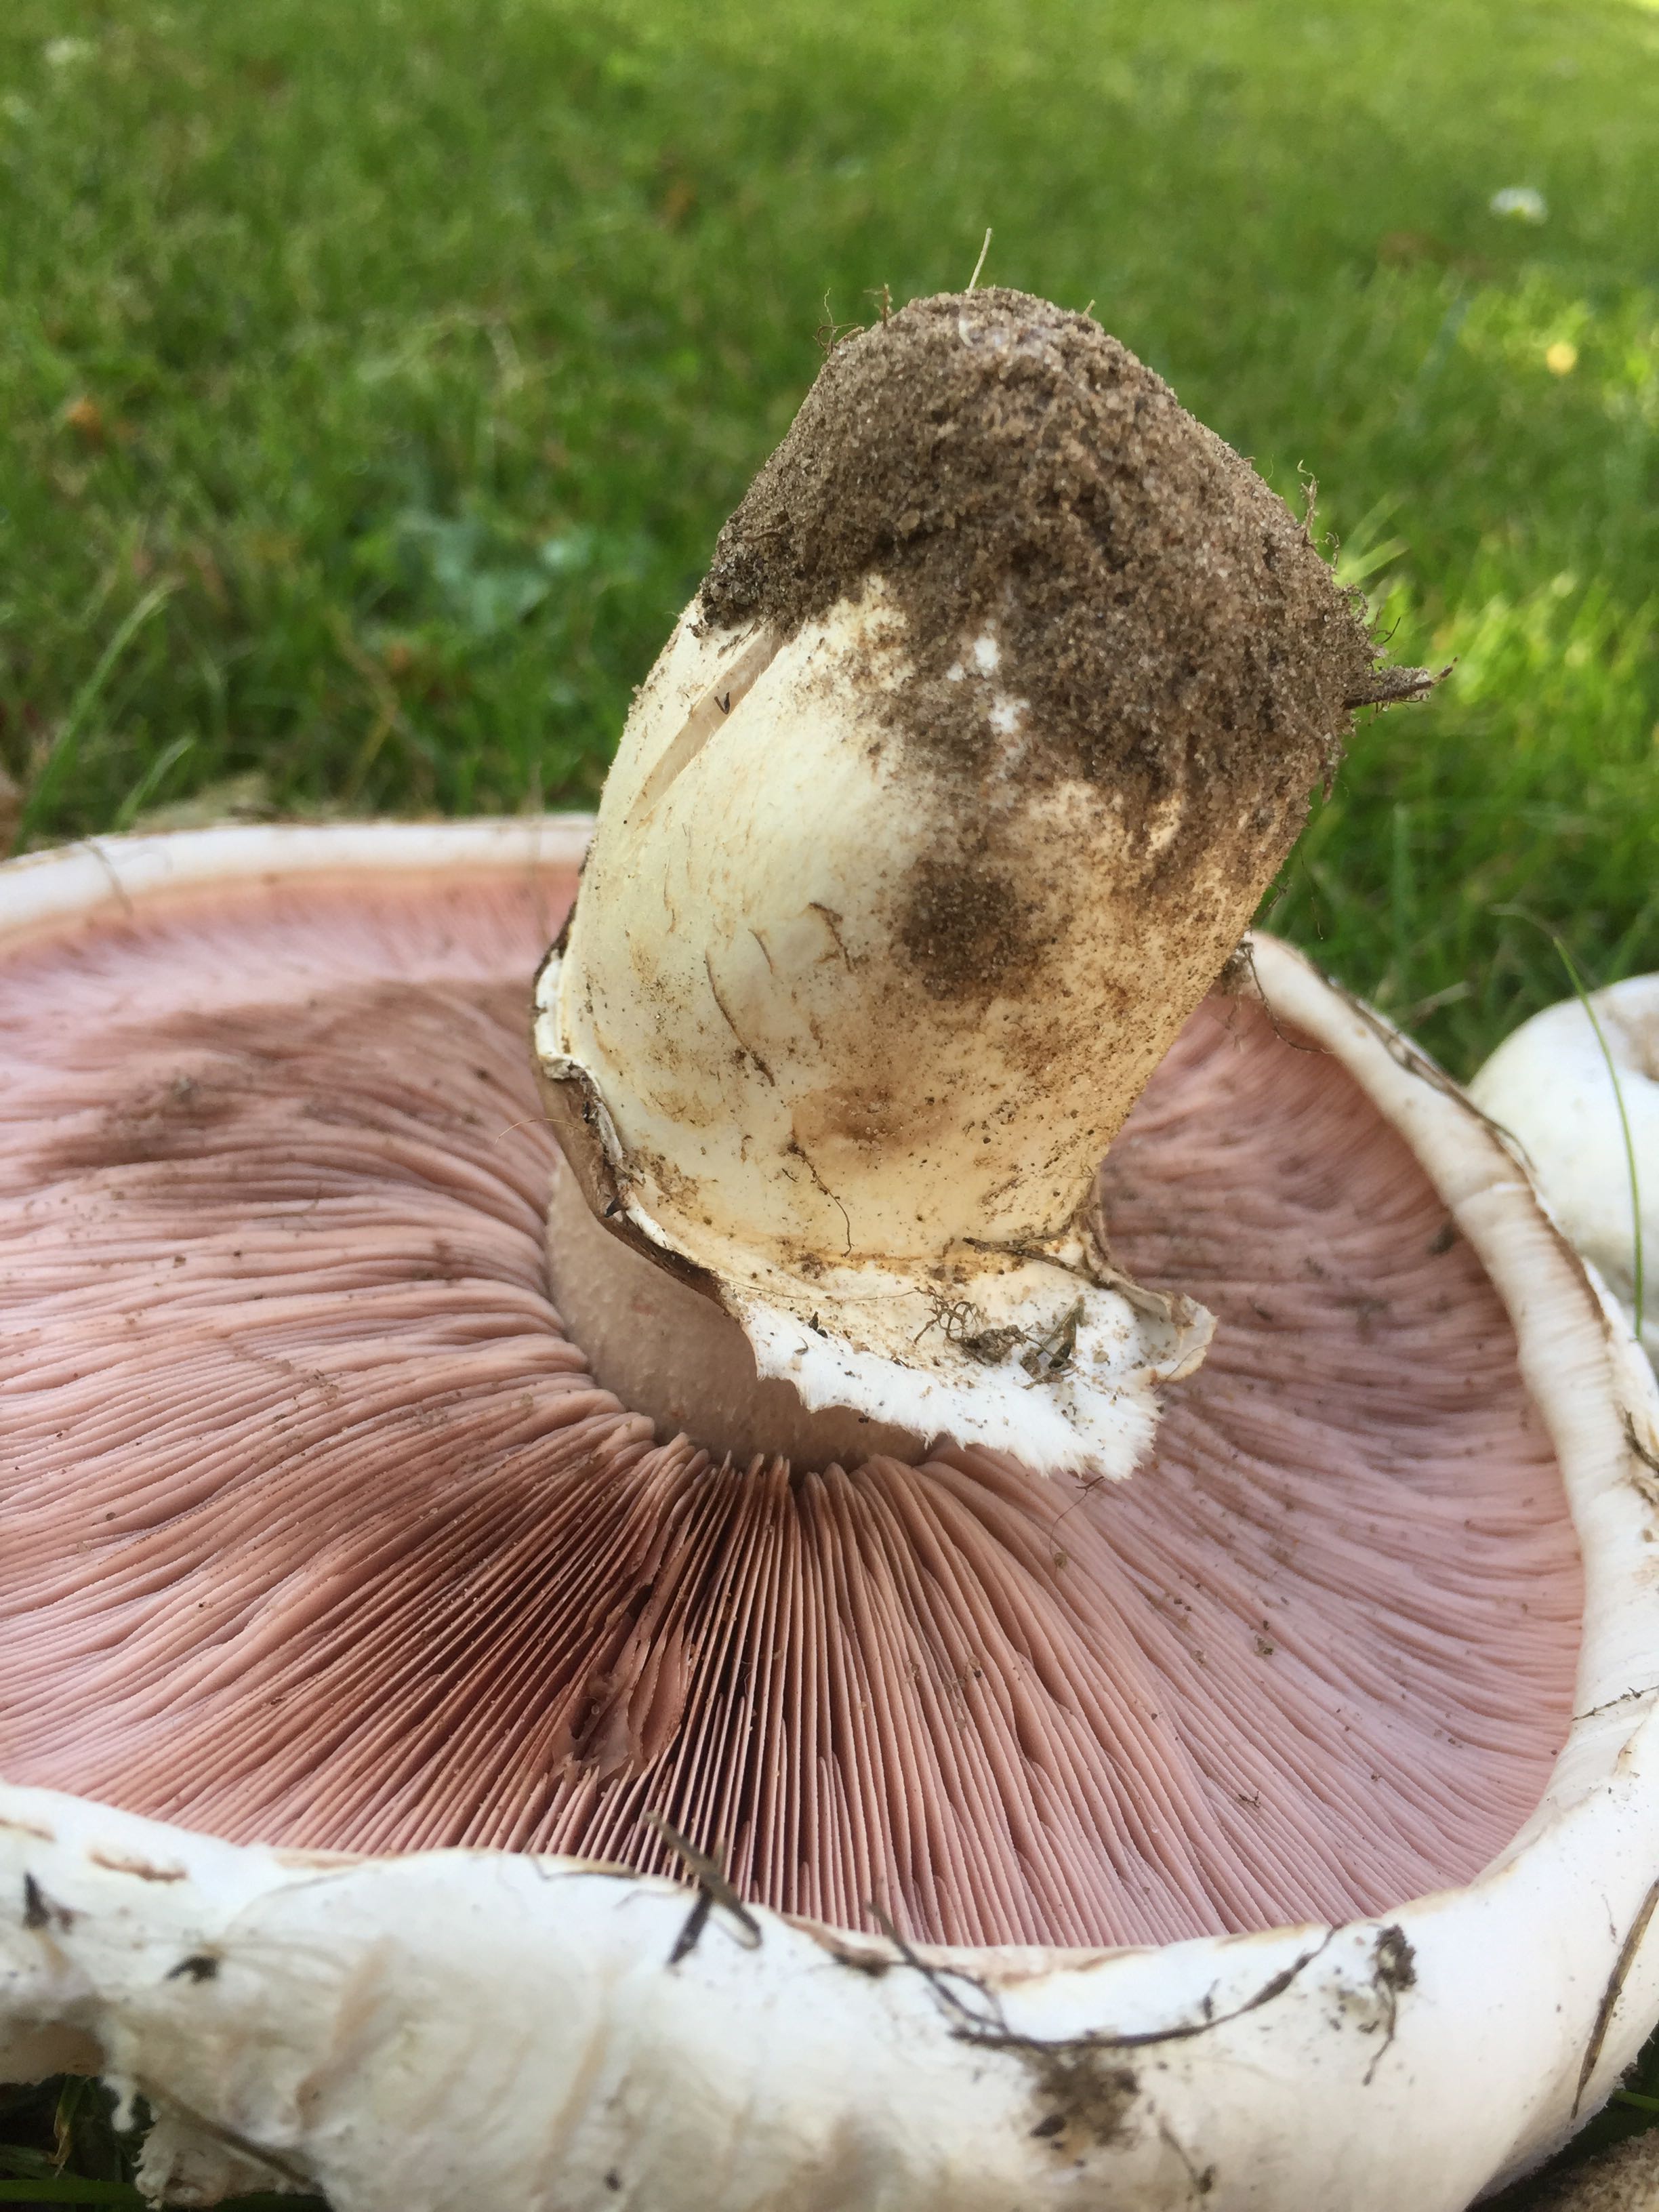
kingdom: Fungi
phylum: Basidiomycota
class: Agaricomycetes
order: Agaricales
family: Agaricaceae
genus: Agaricus
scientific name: Agaricus bernardii
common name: strandengs-champignon
